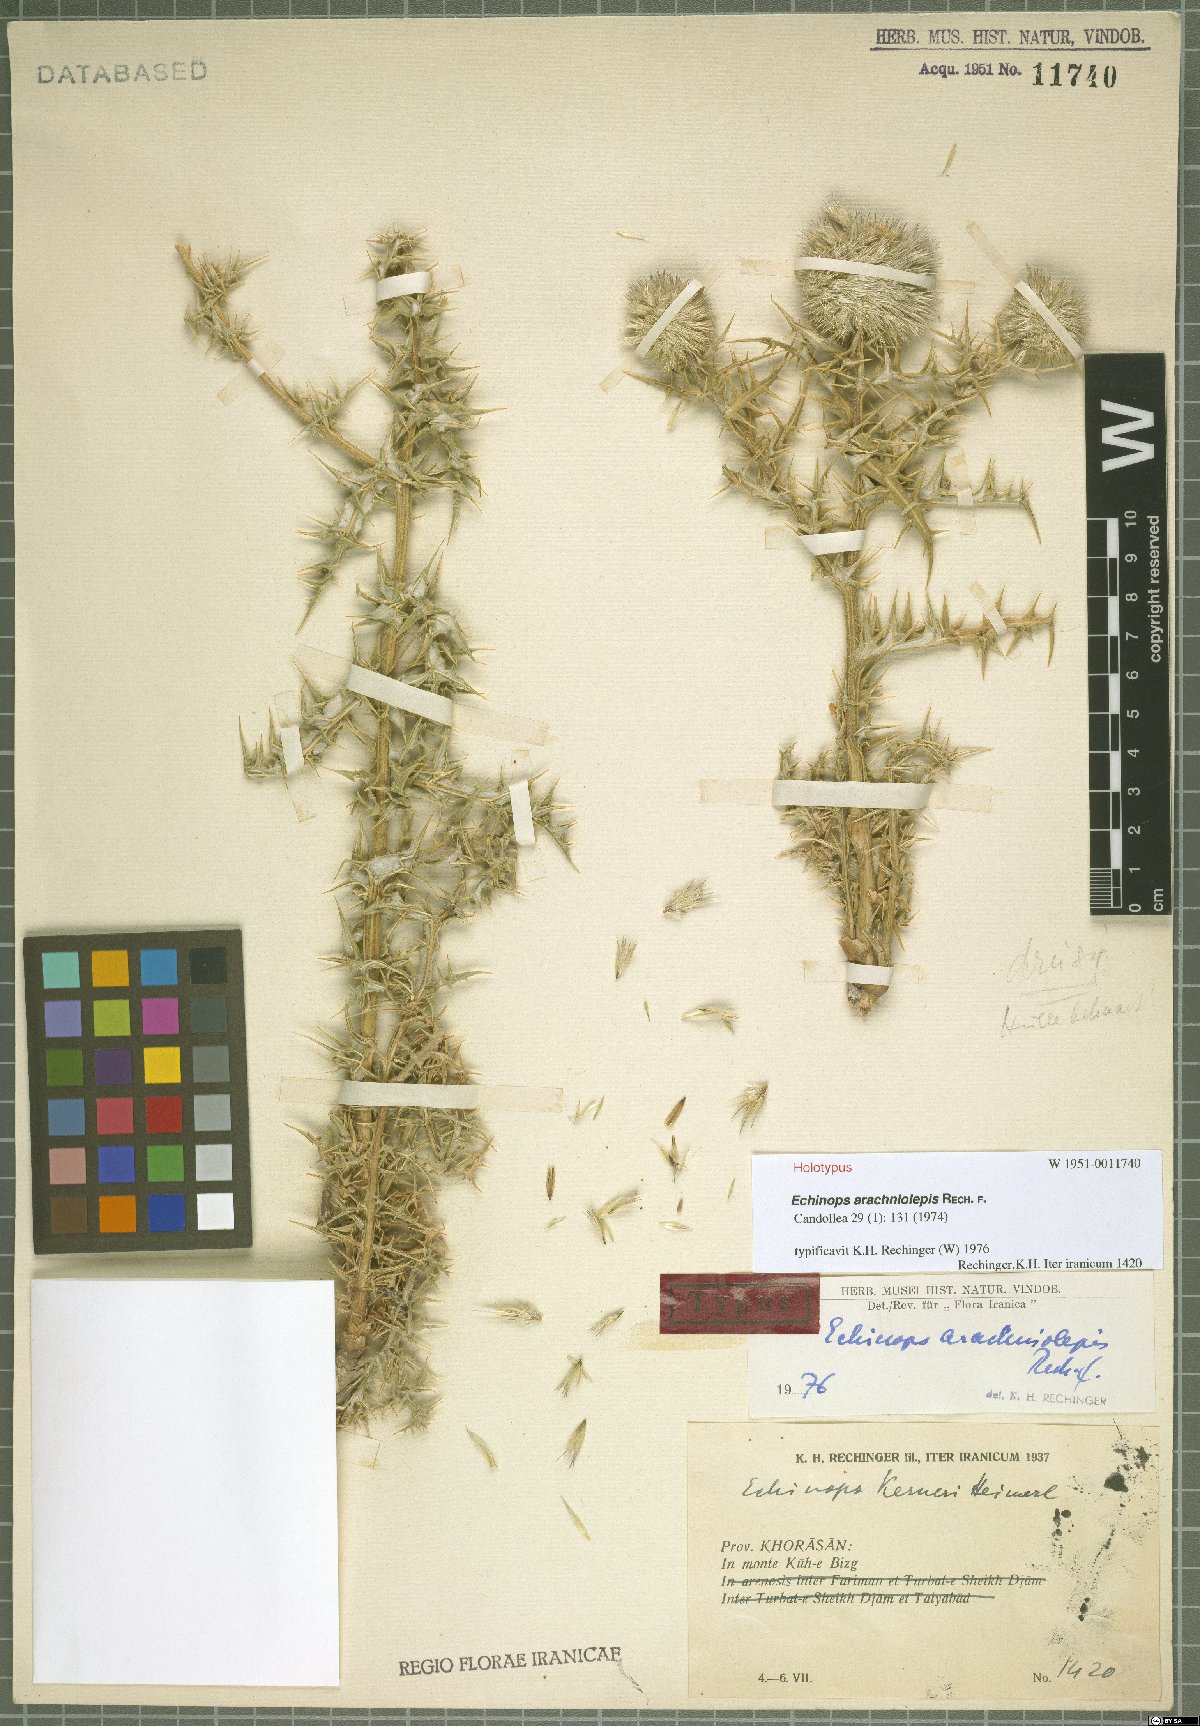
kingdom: Plantae
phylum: Tracheophyta
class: Magnoliopsida
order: Asterales
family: Asteraceae
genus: Echinops
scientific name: Echinops arachniolepis
